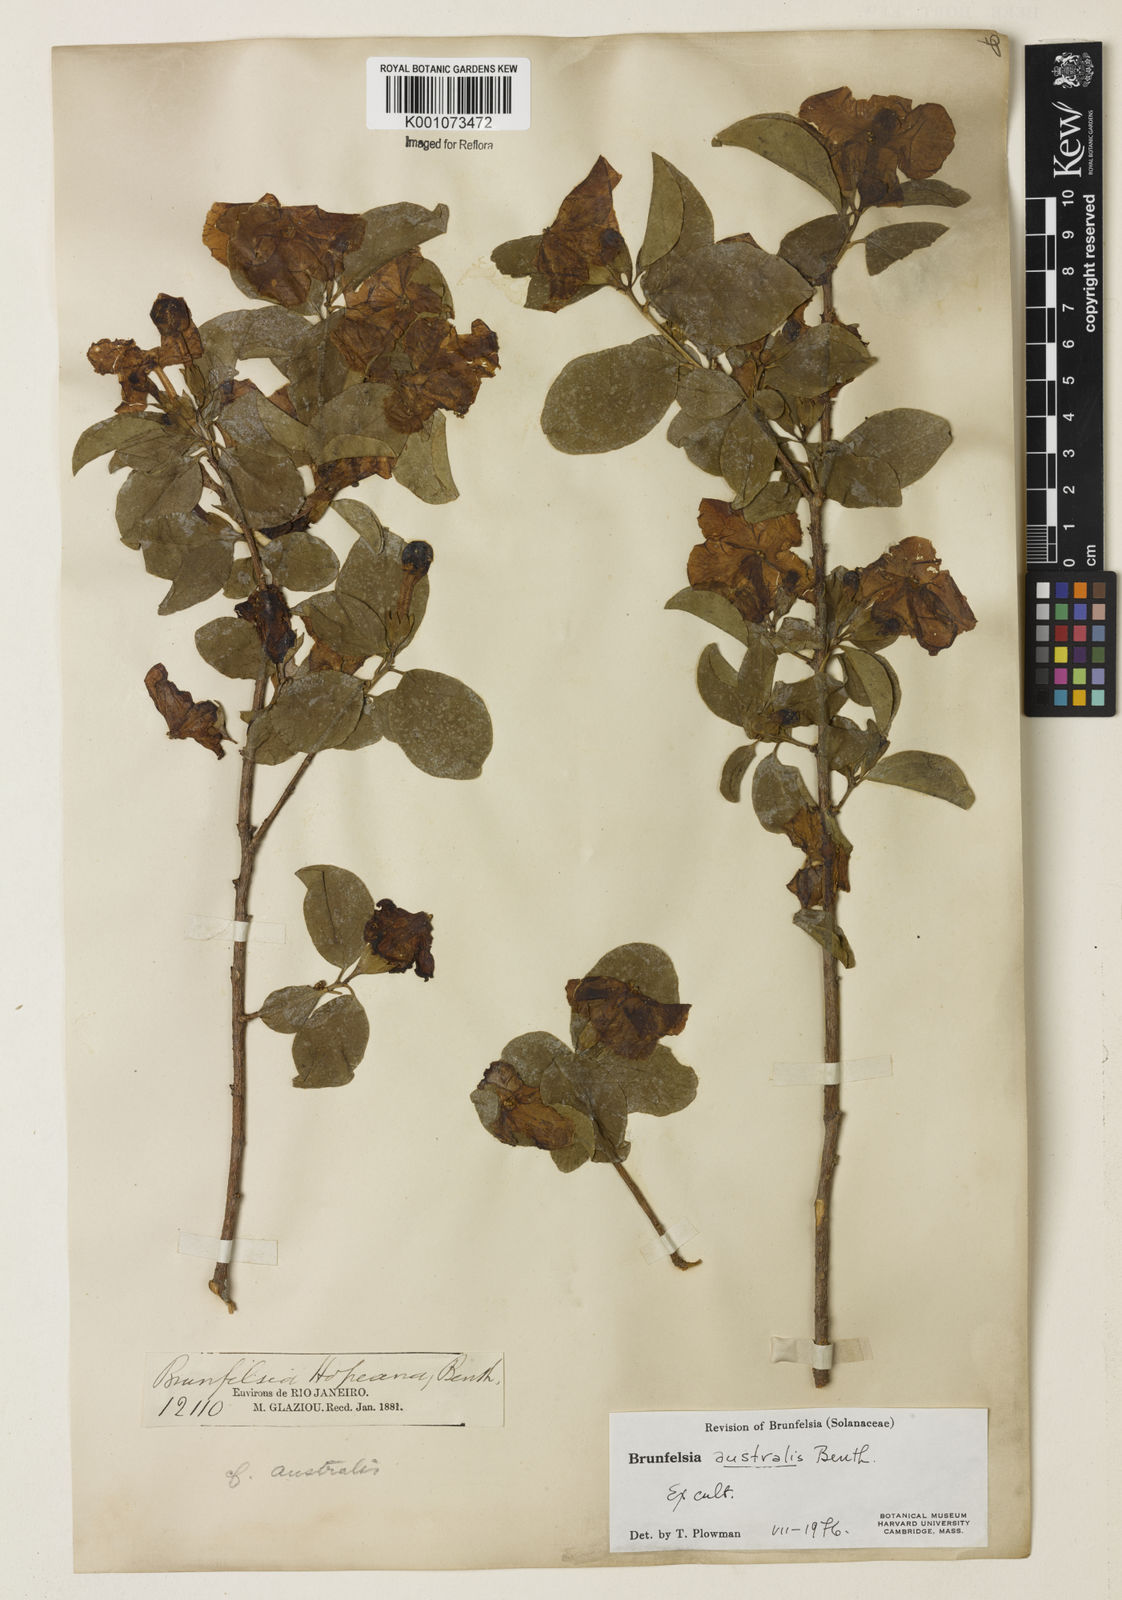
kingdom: Plantae
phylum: Tracheophyta
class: Magnoliopsida
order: Solanales
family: Solanaceae
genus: Brunfelsia
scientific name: Brunfelsia australis
